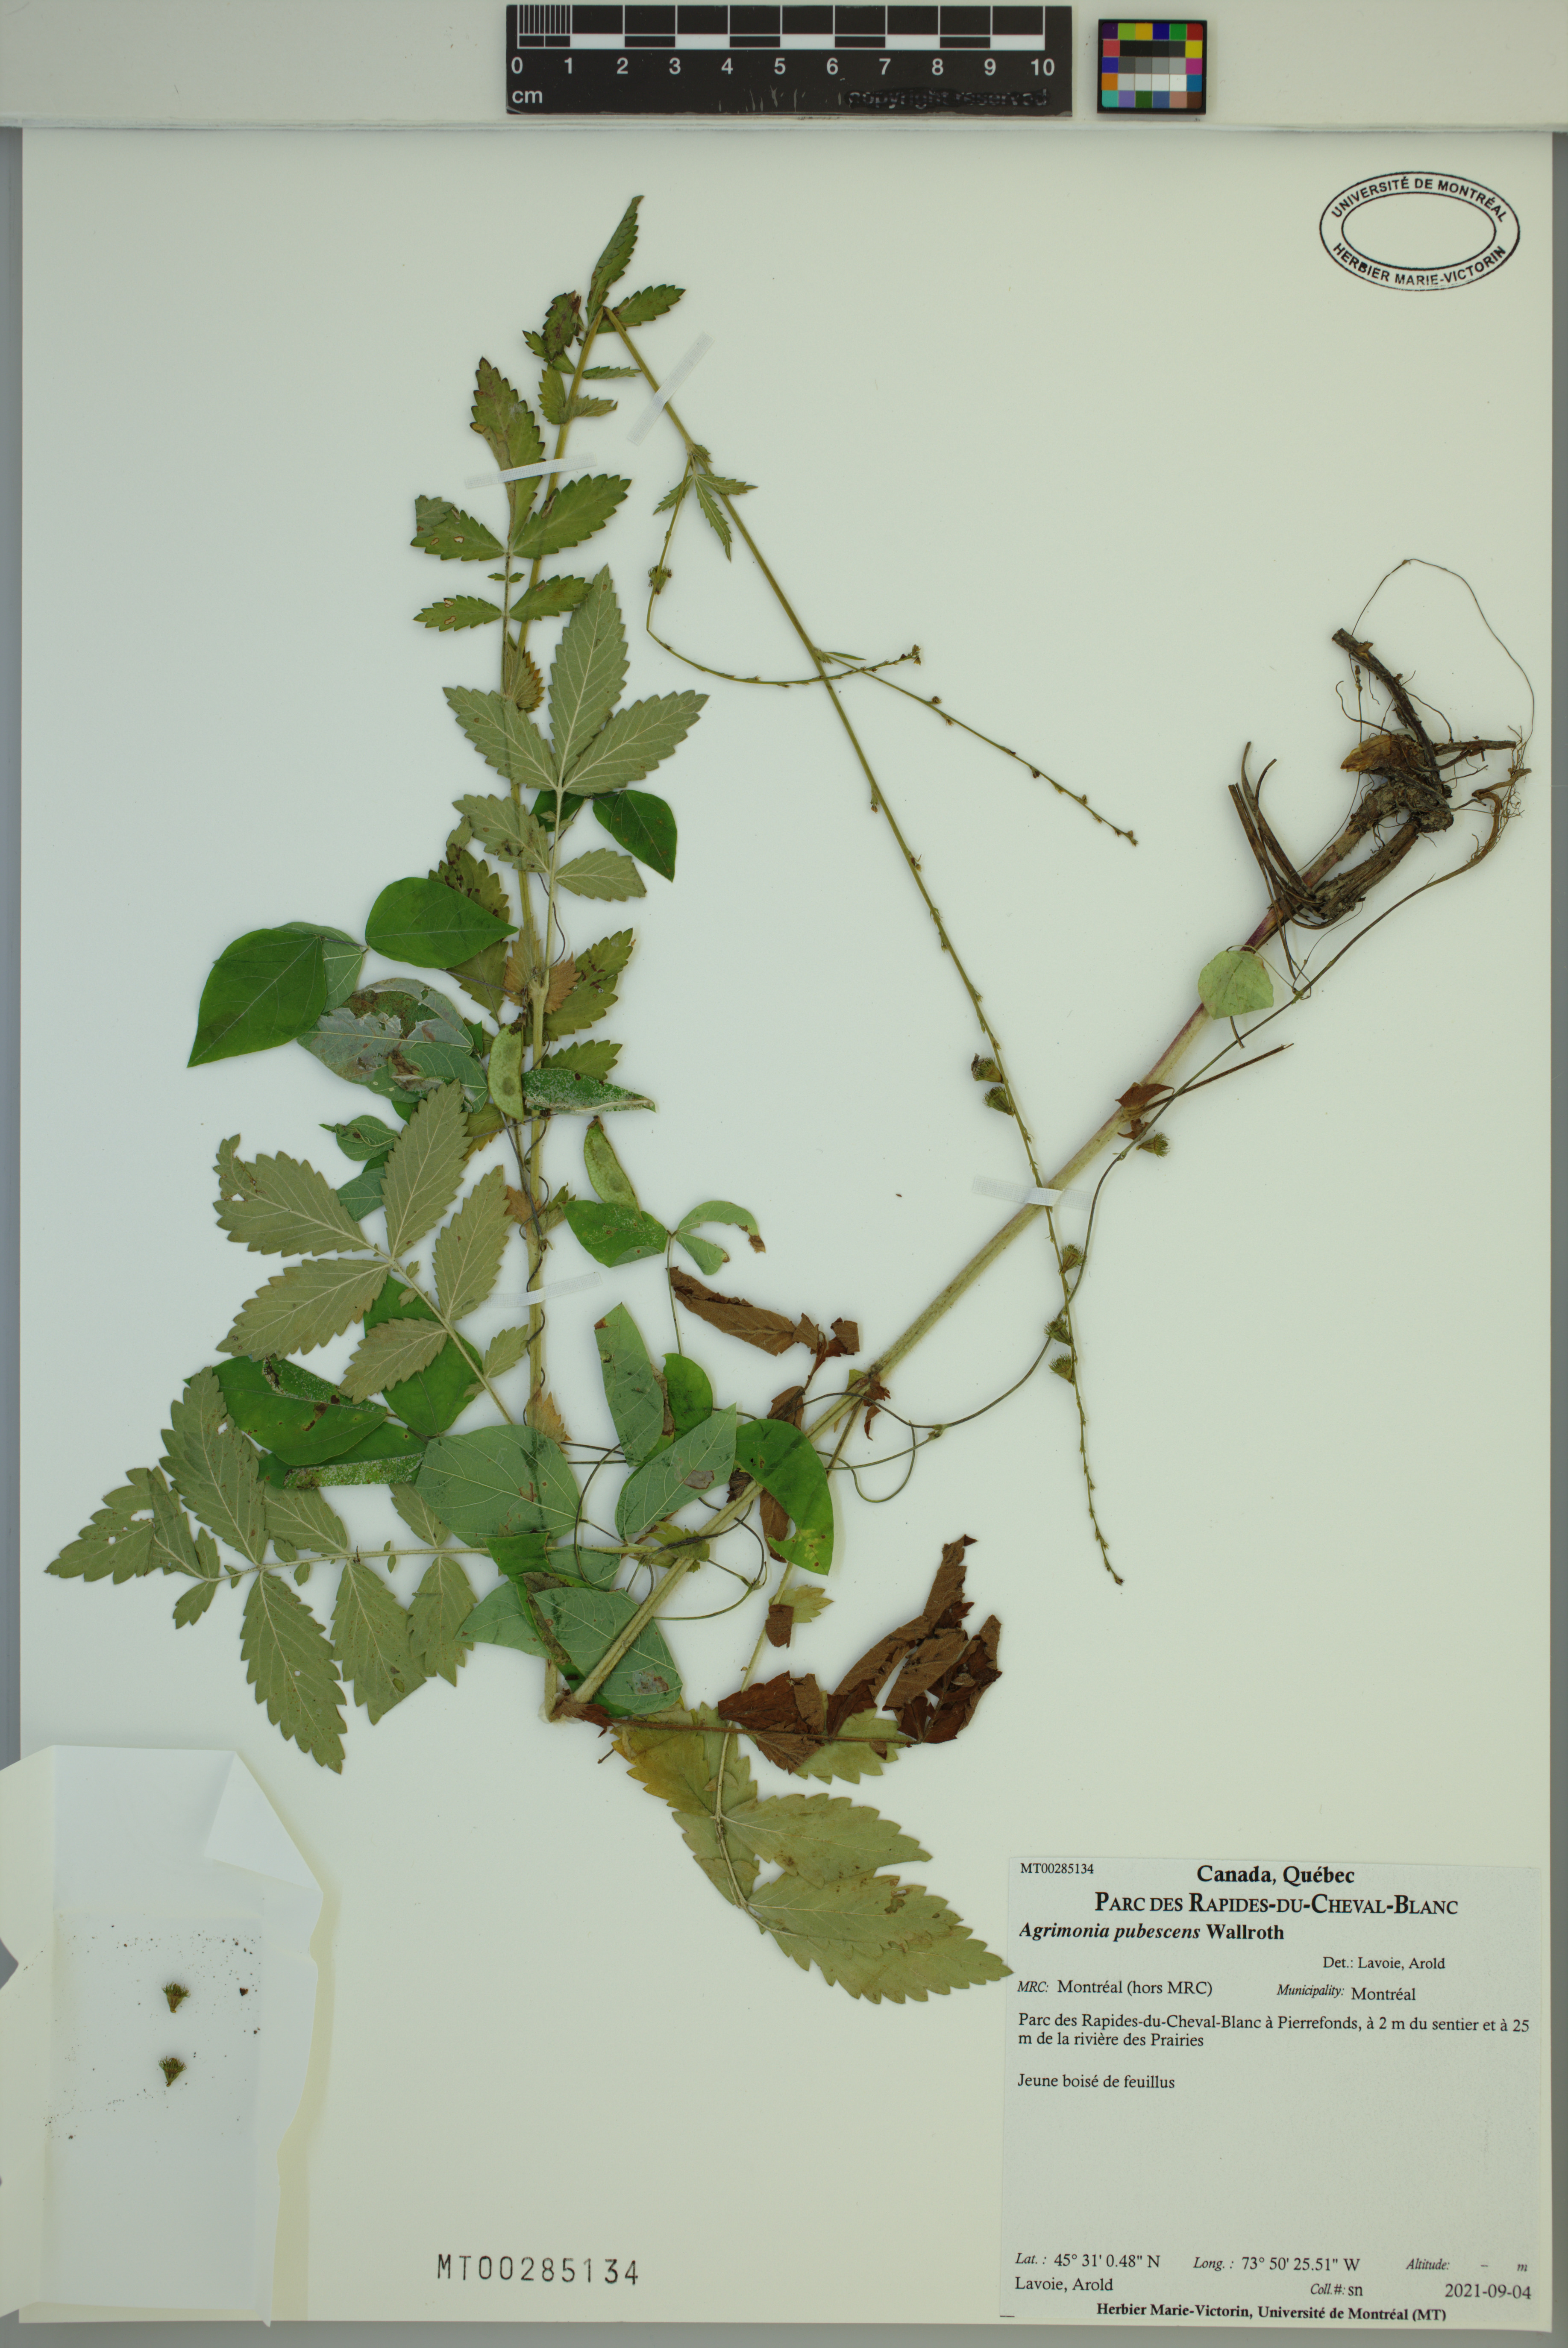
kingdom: Plantae
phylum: Tracheophyta
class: Magnoliopsida
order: Rosales
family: Rosaceae
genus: Agrimonia
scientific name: Agrimonia pubescens
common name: Downy agrimony
